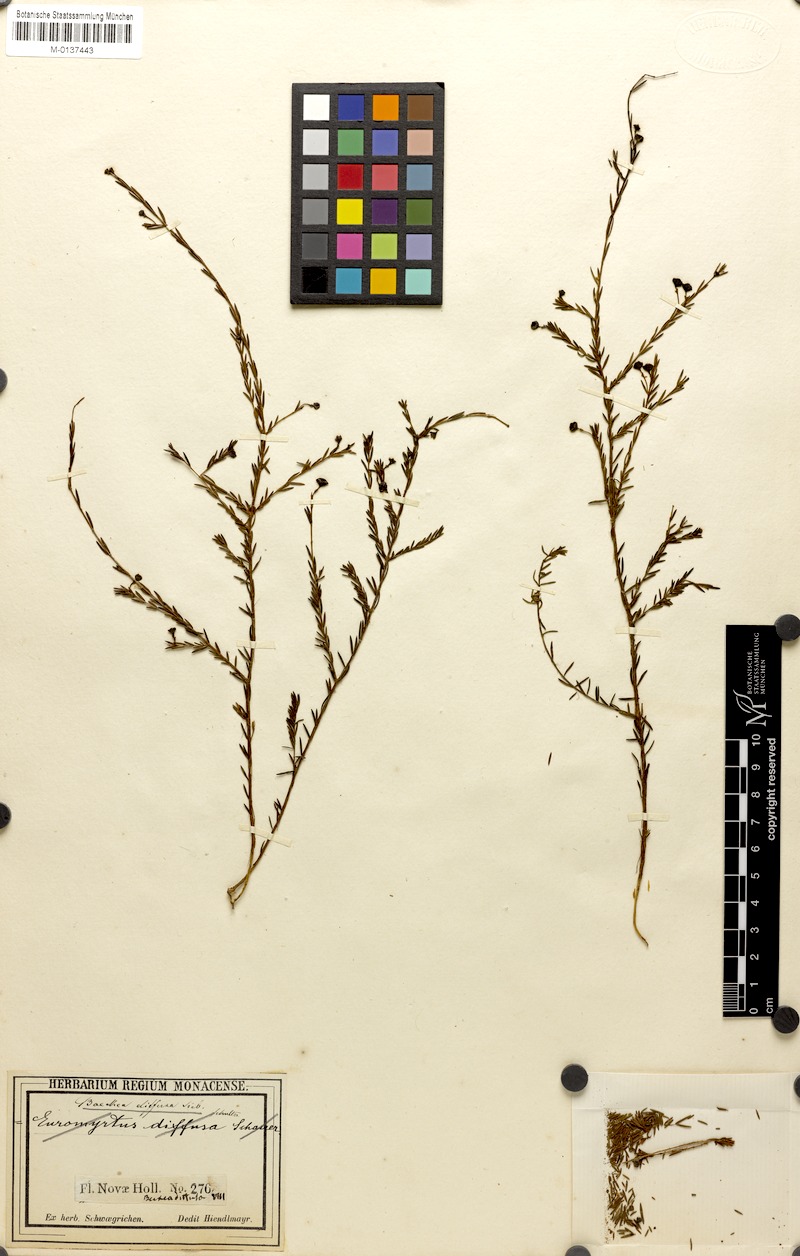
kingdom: Plantae
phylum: Tracheophyta
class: Magnoliopsida
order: Myrtales
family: Myrtaceae
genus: Euryomyrtus
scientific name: Euryomyrtus ramosissima
